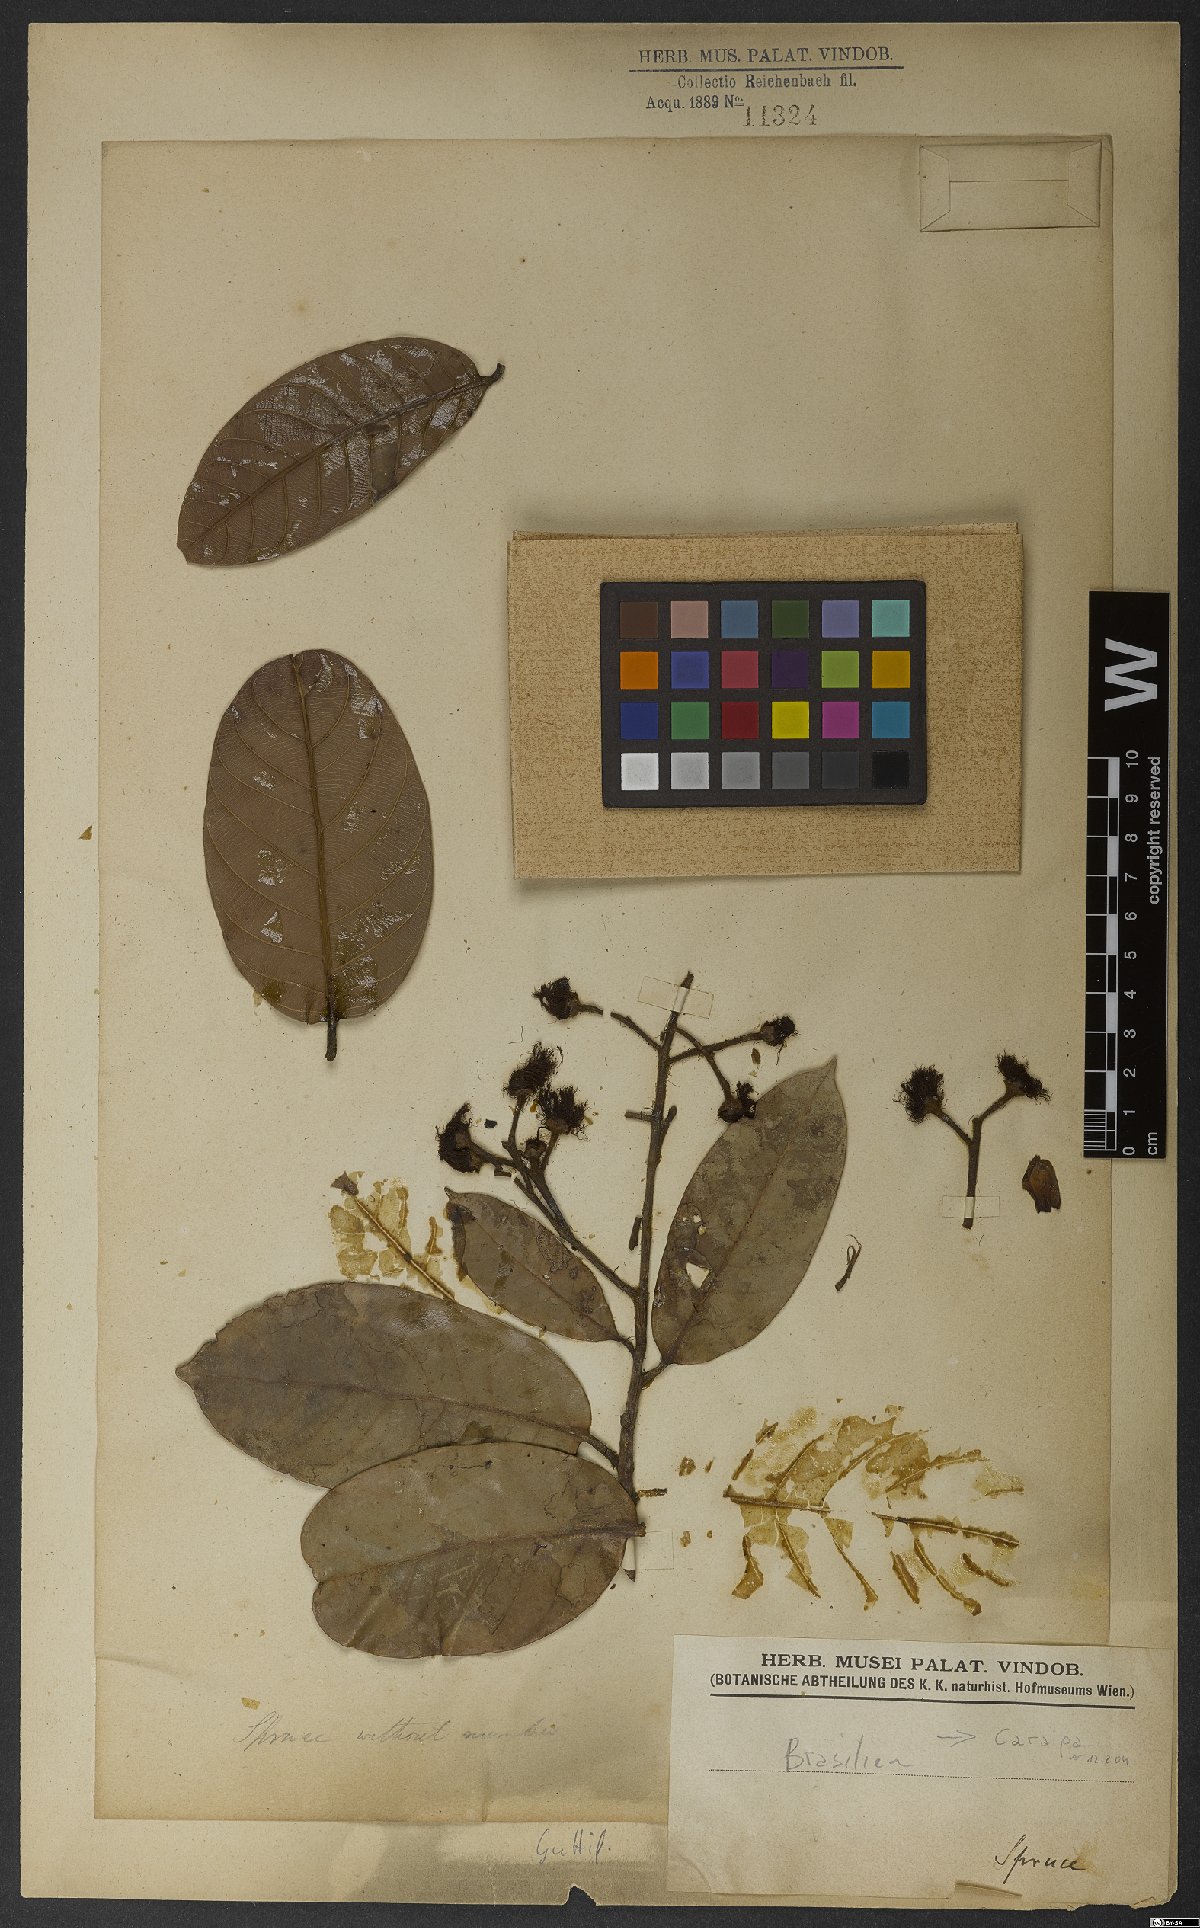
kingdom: Plantae
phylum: Tracheophyta
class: Magnoliopsida
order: Malpighiales
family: Calophyllaceae
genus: Caraipa
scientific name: Caraipa
